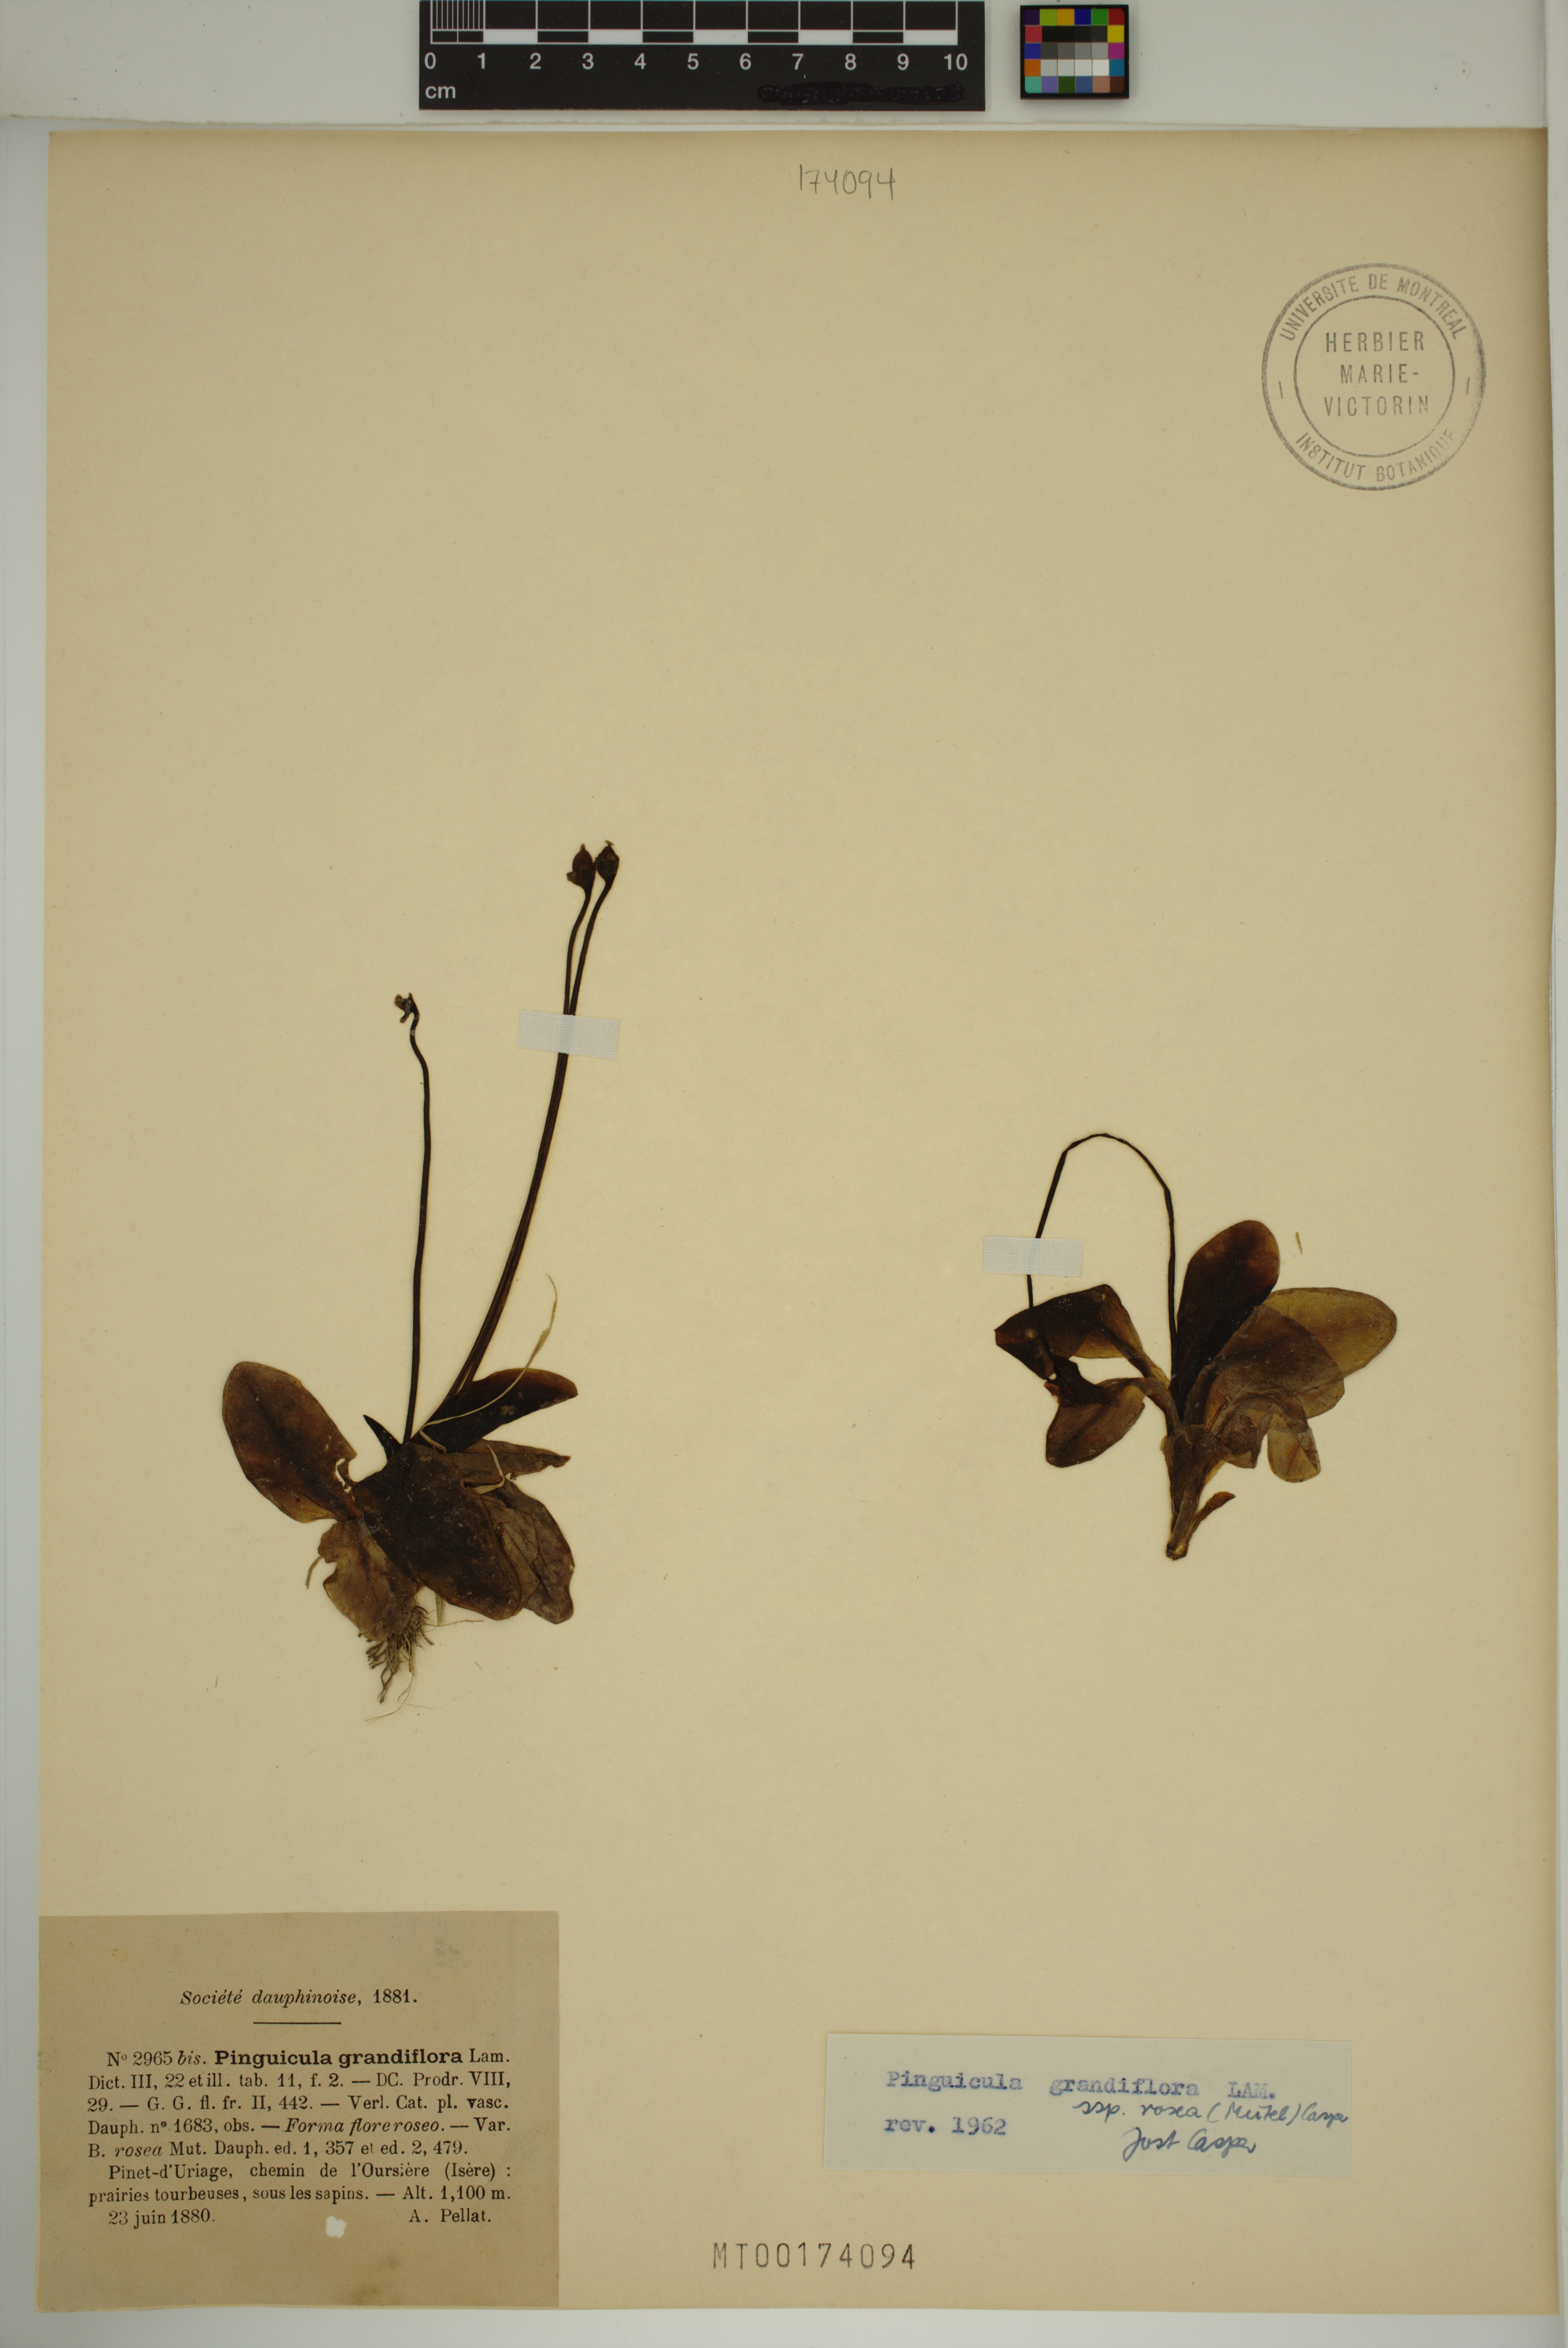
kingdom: Plantae
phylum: Tracheophyta
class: Magnoliopsida
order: Lamiales
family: Lentibulariaceae
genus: Pinguicula
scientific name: Pinguicula grandiflora
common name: Large-flowered butterwort
